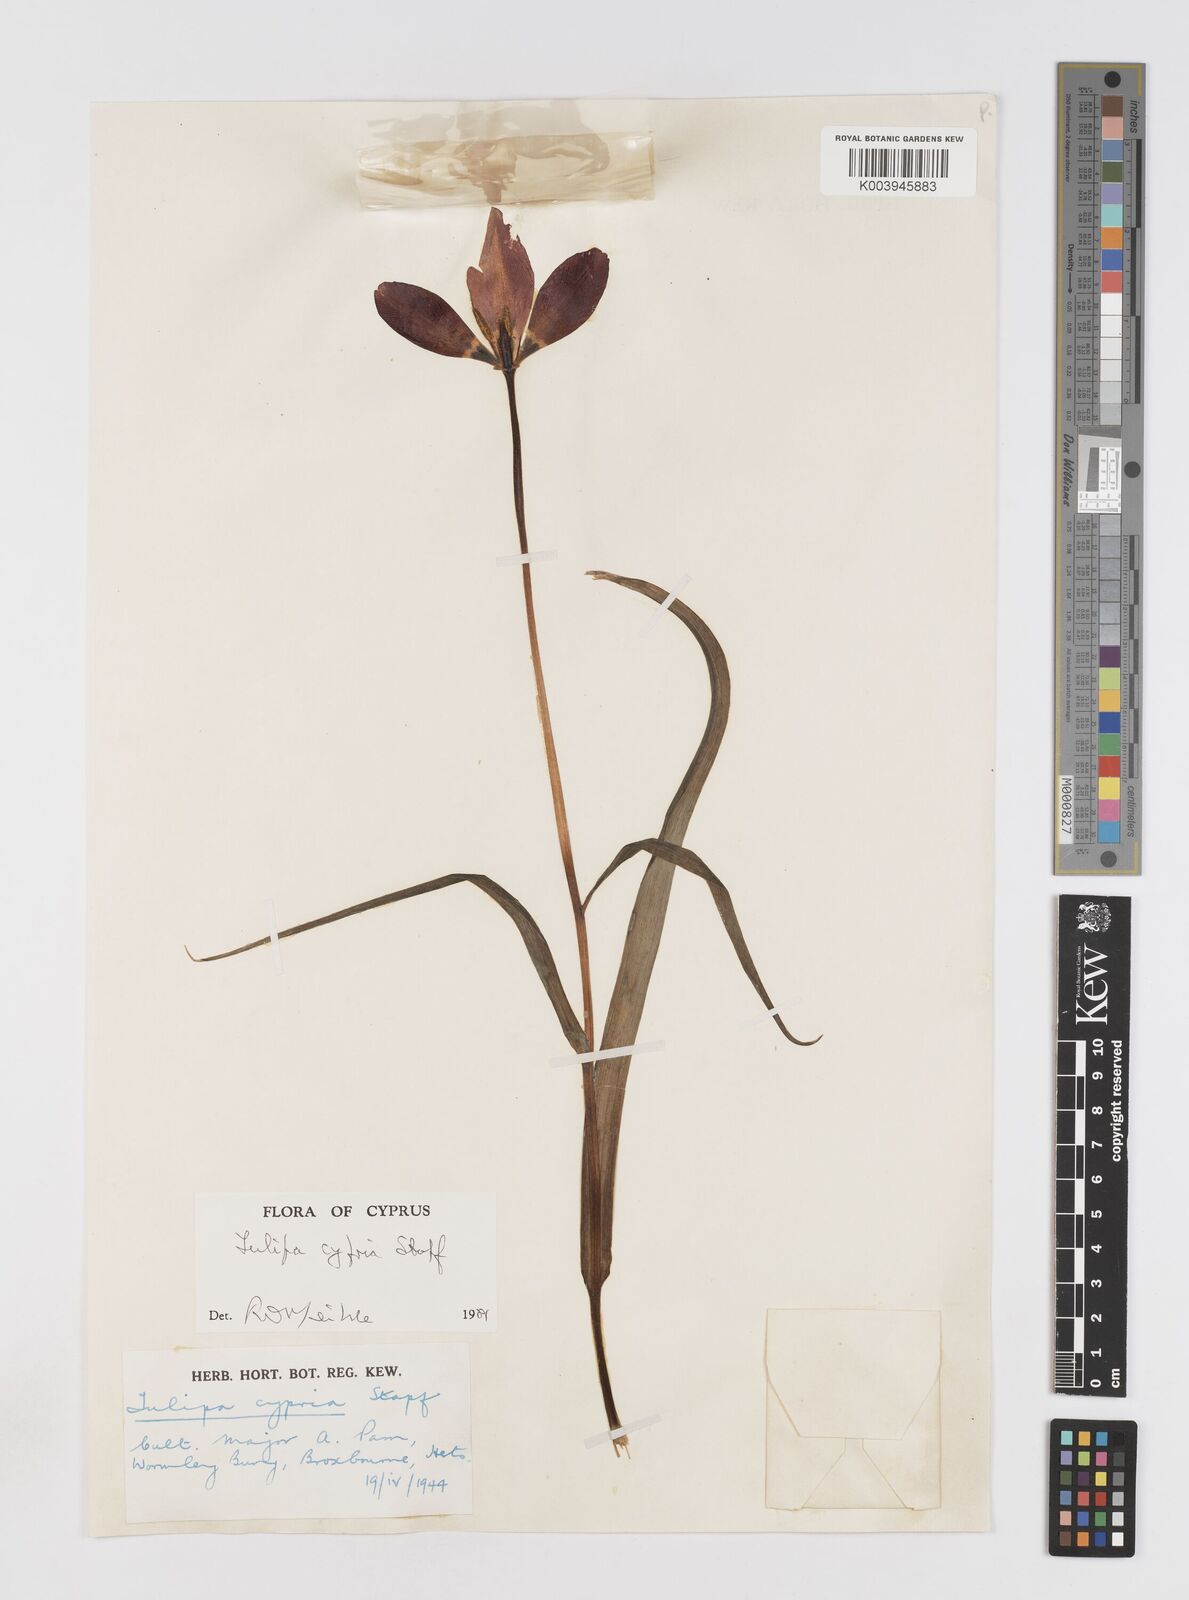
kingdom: Plantae
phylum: Tracheophyta
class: Liliopsida
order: Liliales
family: Liliaceae
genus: Tulipa
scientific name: Tulipa cypria
